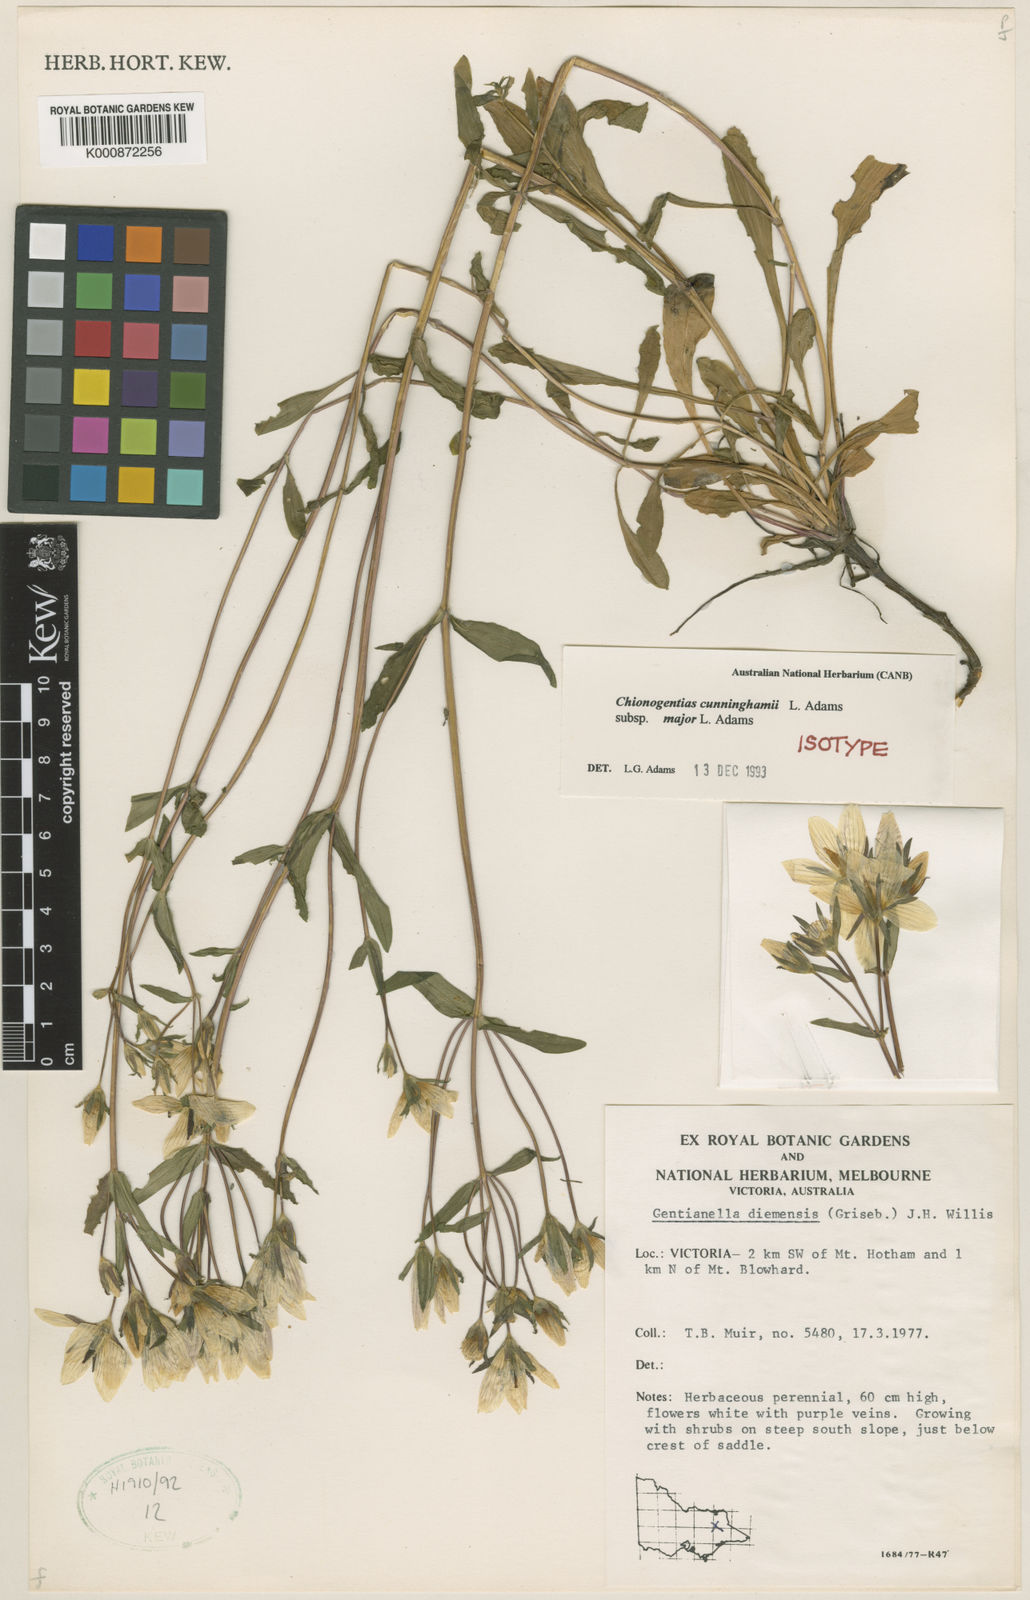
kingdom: Plantae
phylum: Tracheophyta
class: Magnoliopsida
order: Gentianales
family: Gentianaceae
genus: Gentianella
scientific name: Gentianella cunninghamii
